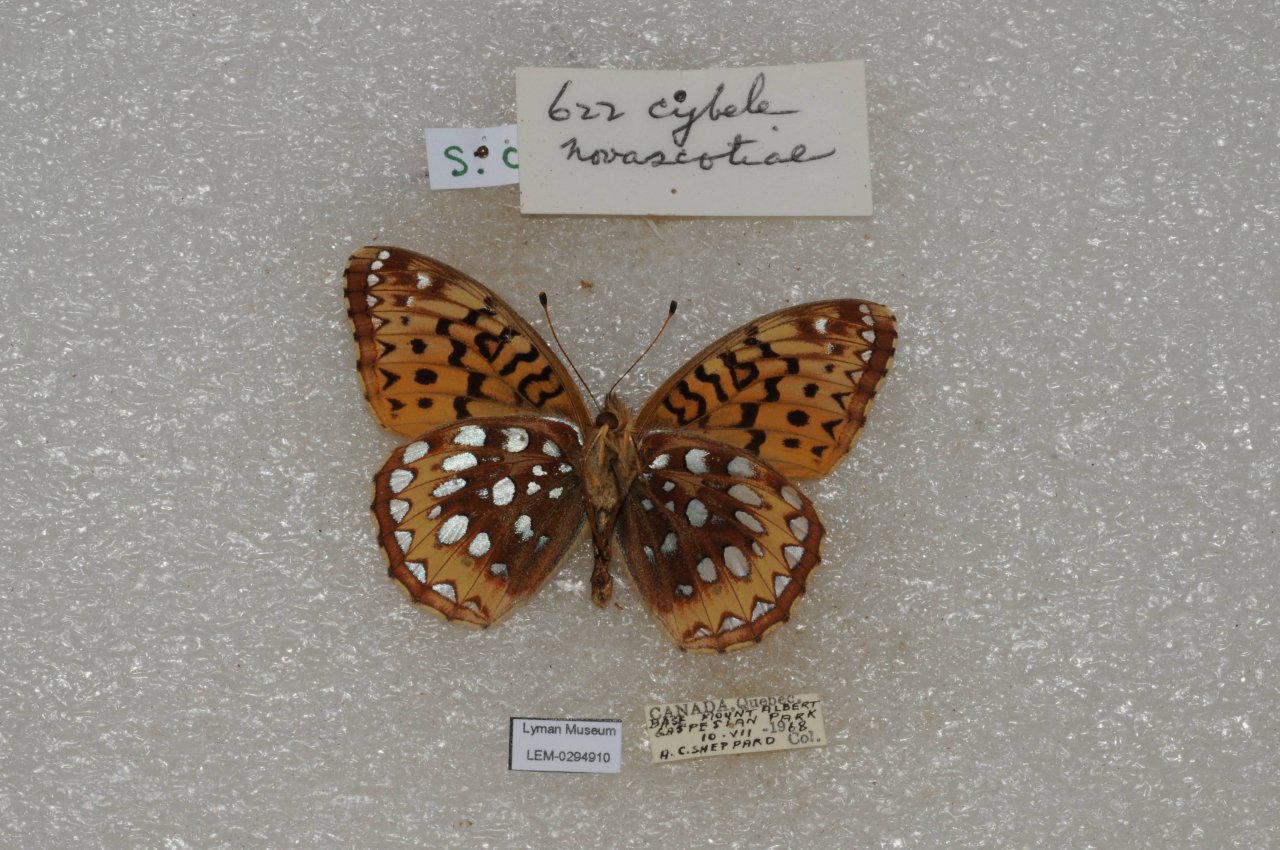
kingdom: Animalia
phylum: Arthropoda
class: Insecta
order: Lepidoptera
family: Nymphalidae
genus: Speyeria
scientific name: Speyeria cybele
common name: Great Spangled Fritillary
